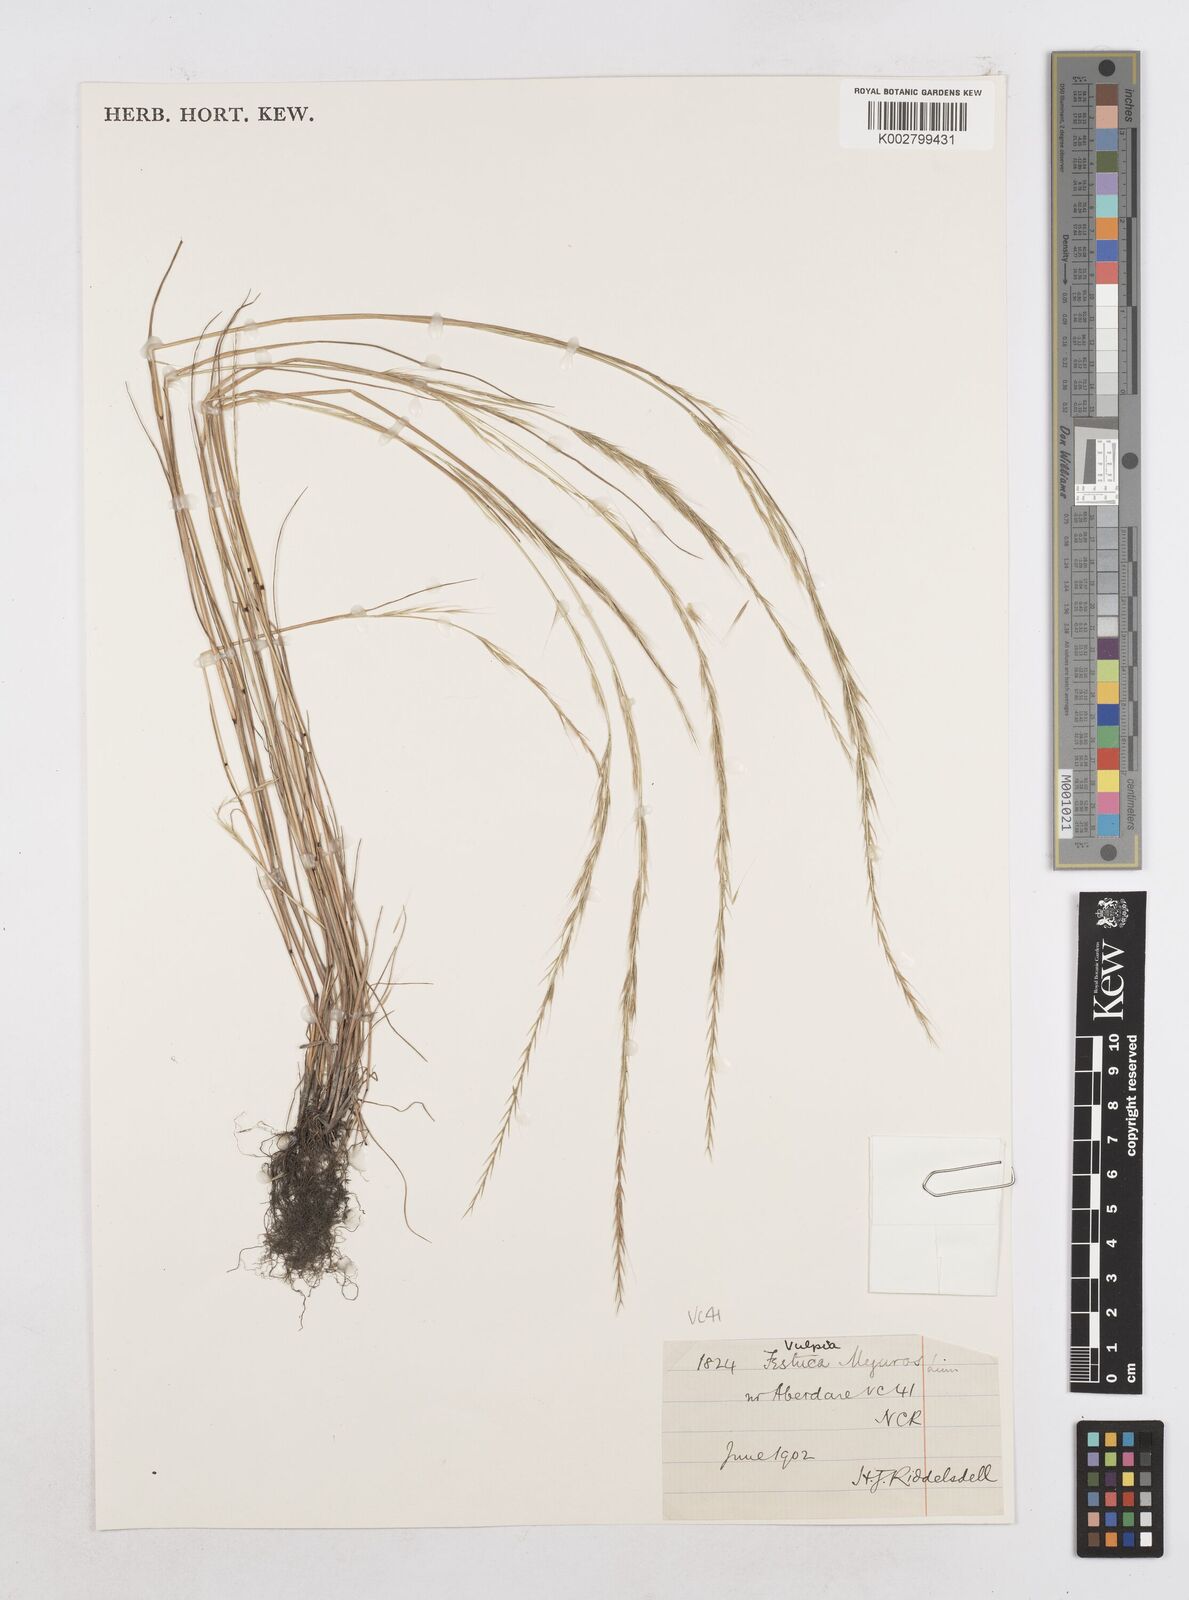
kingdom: Plantae
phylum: Tracheophyta
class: Liliopsida
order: Poales
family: Poaceae
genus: Festuca
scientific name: Festuca myuros
